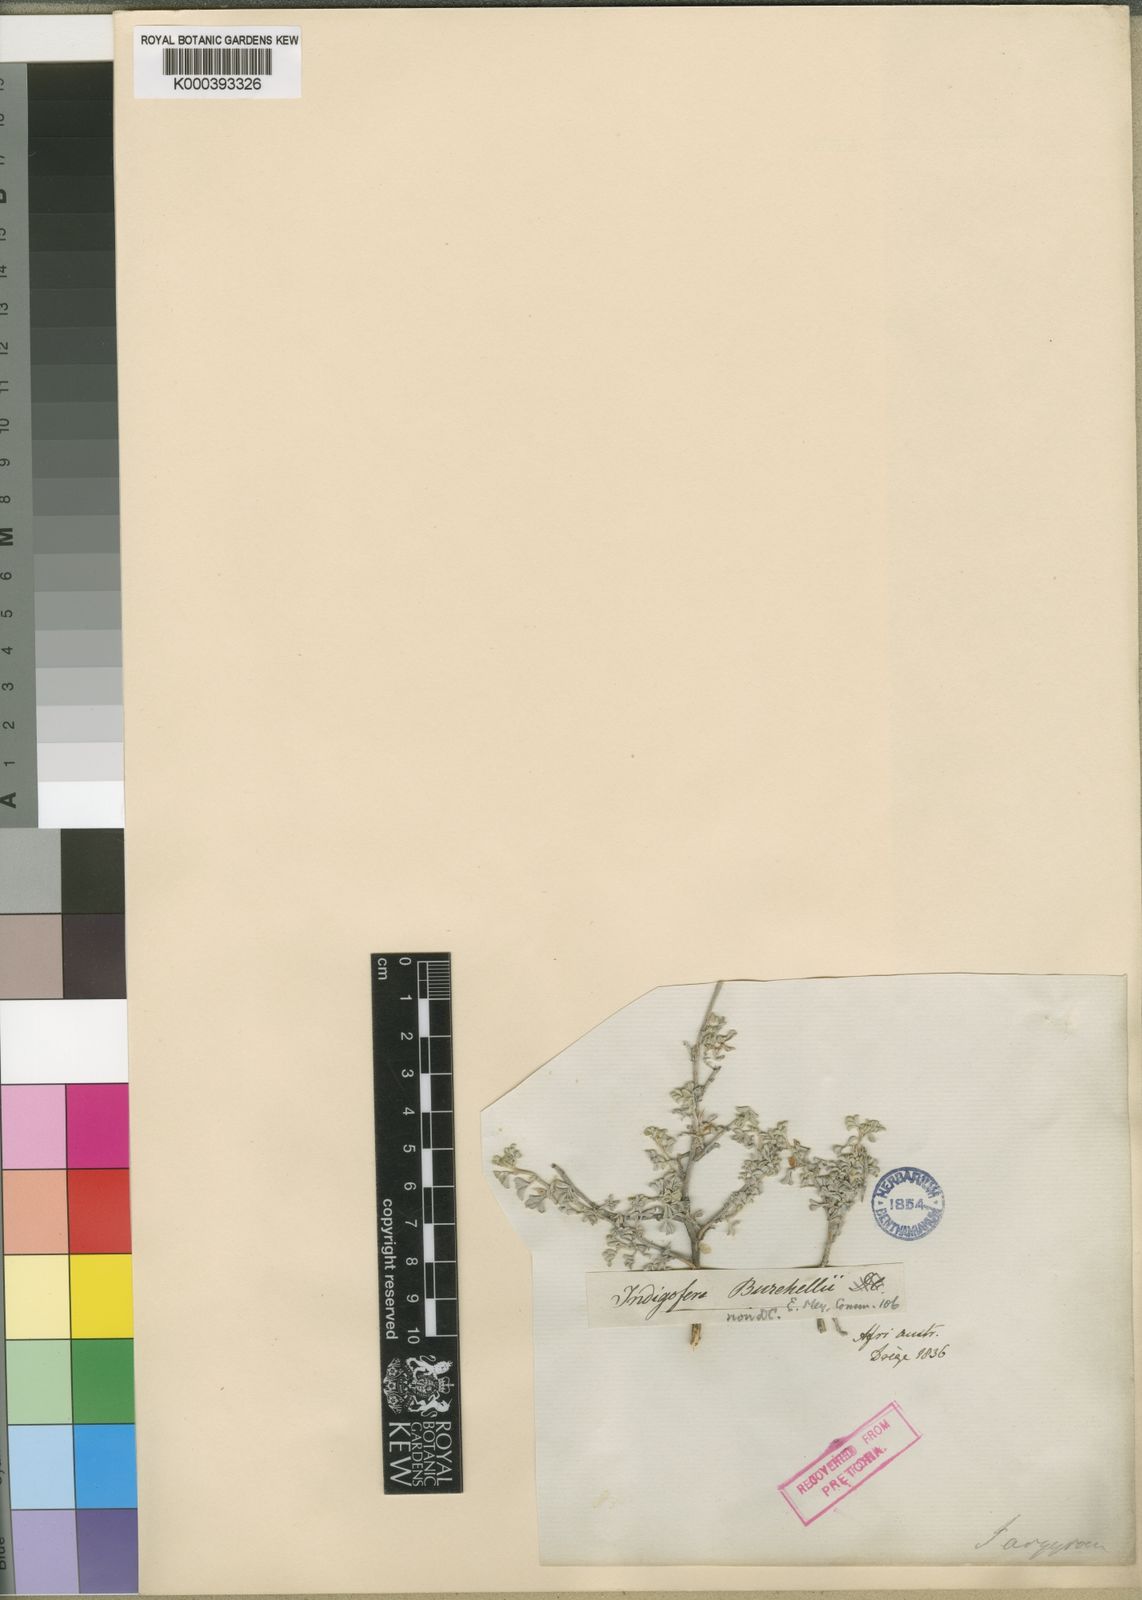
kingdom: Plantae
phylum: Tracheophyta
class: Magnoliopsida
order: Fabales
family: Fabaceae
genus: Indigastrum
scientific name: Indigastrum niveum
